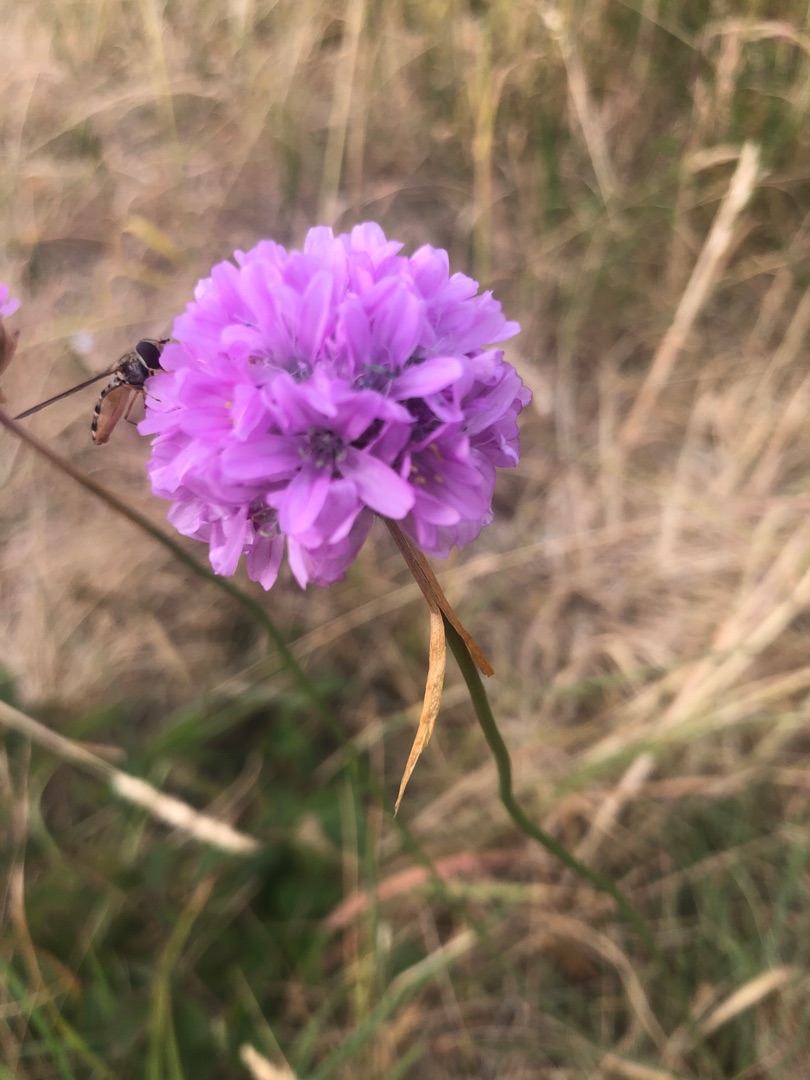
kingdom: Plantae
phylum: Tracheophyta
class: Magnoliopsida
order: Caryophyllales
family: Plumbaginaceae
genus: Armeria
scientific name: Armeria maritima
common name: Engelskgræs
